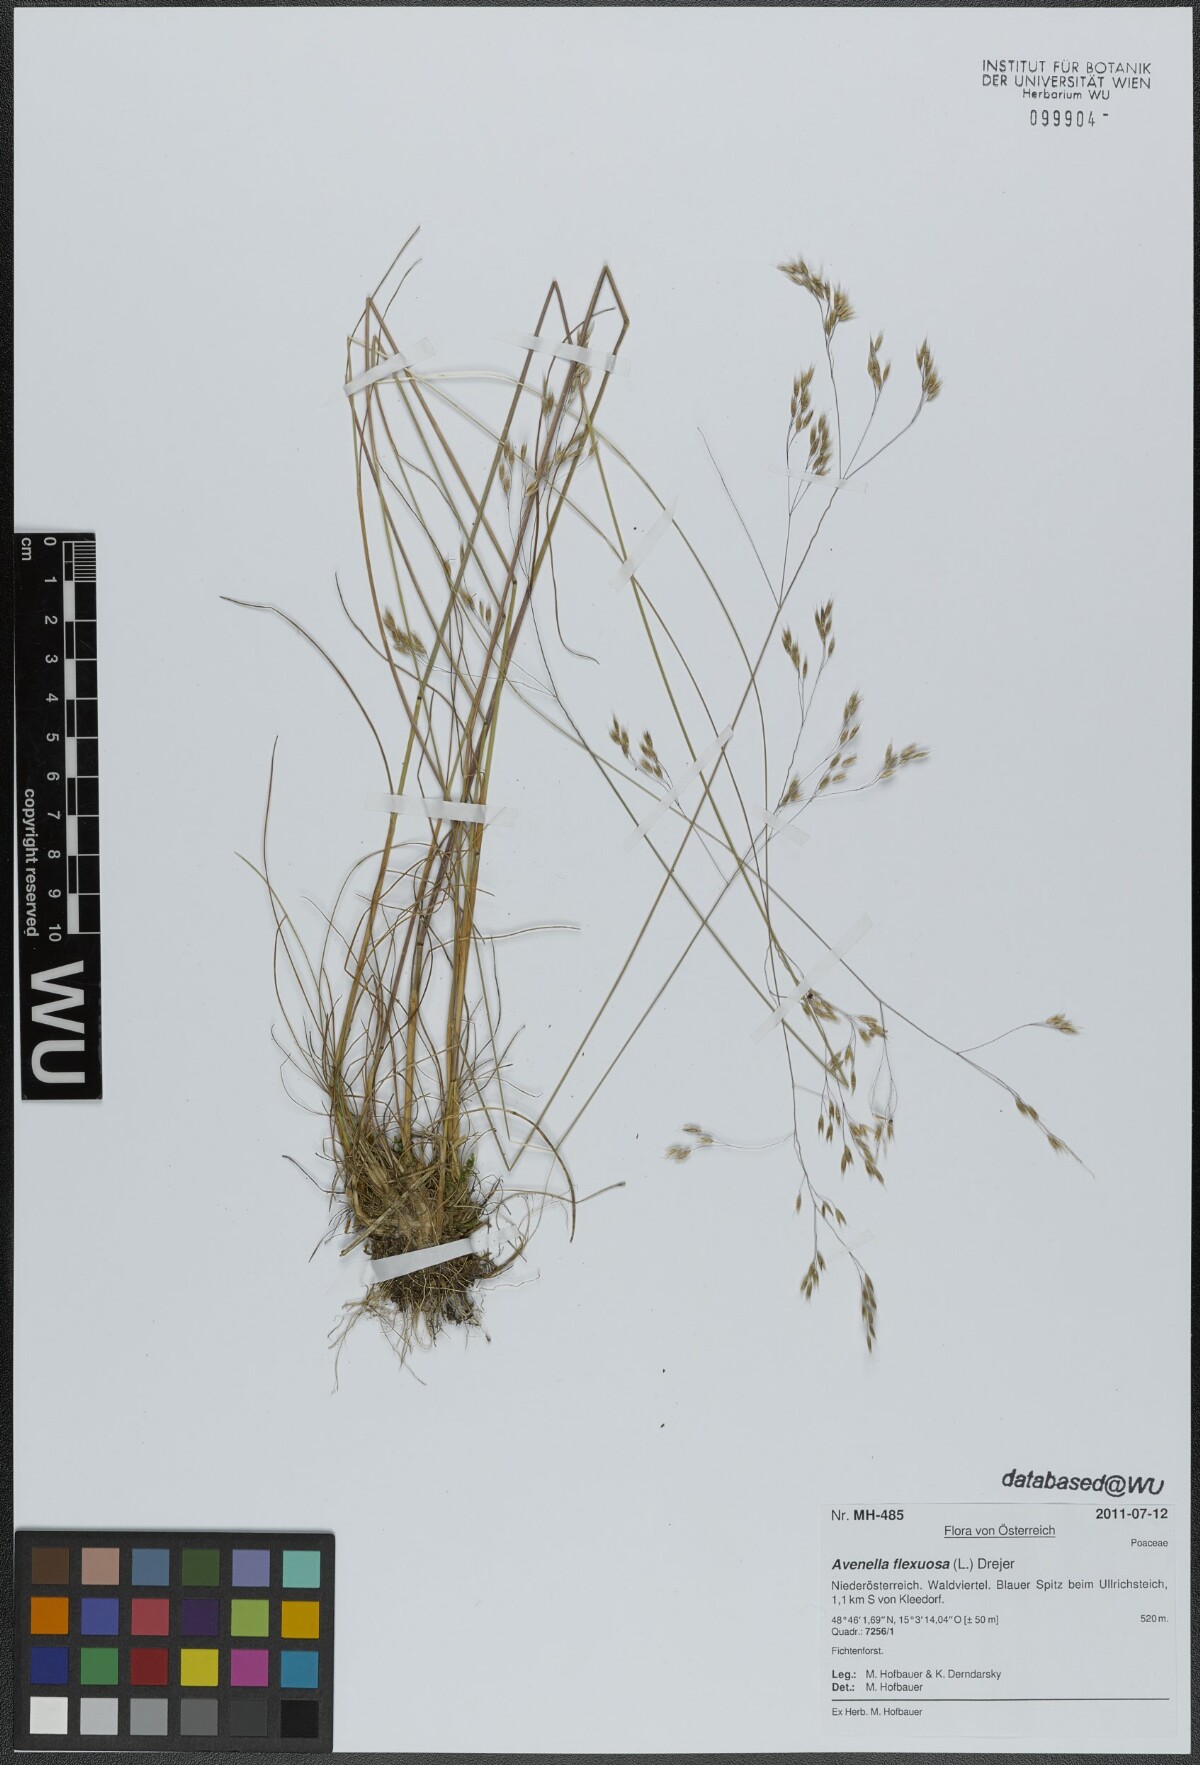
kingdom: Plantae
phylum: Tracheophyta
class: Liliopsida
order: Poales
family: Poaceae
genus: Avenella
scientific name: Avenella flexuosa
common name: Wavy hairgrass
